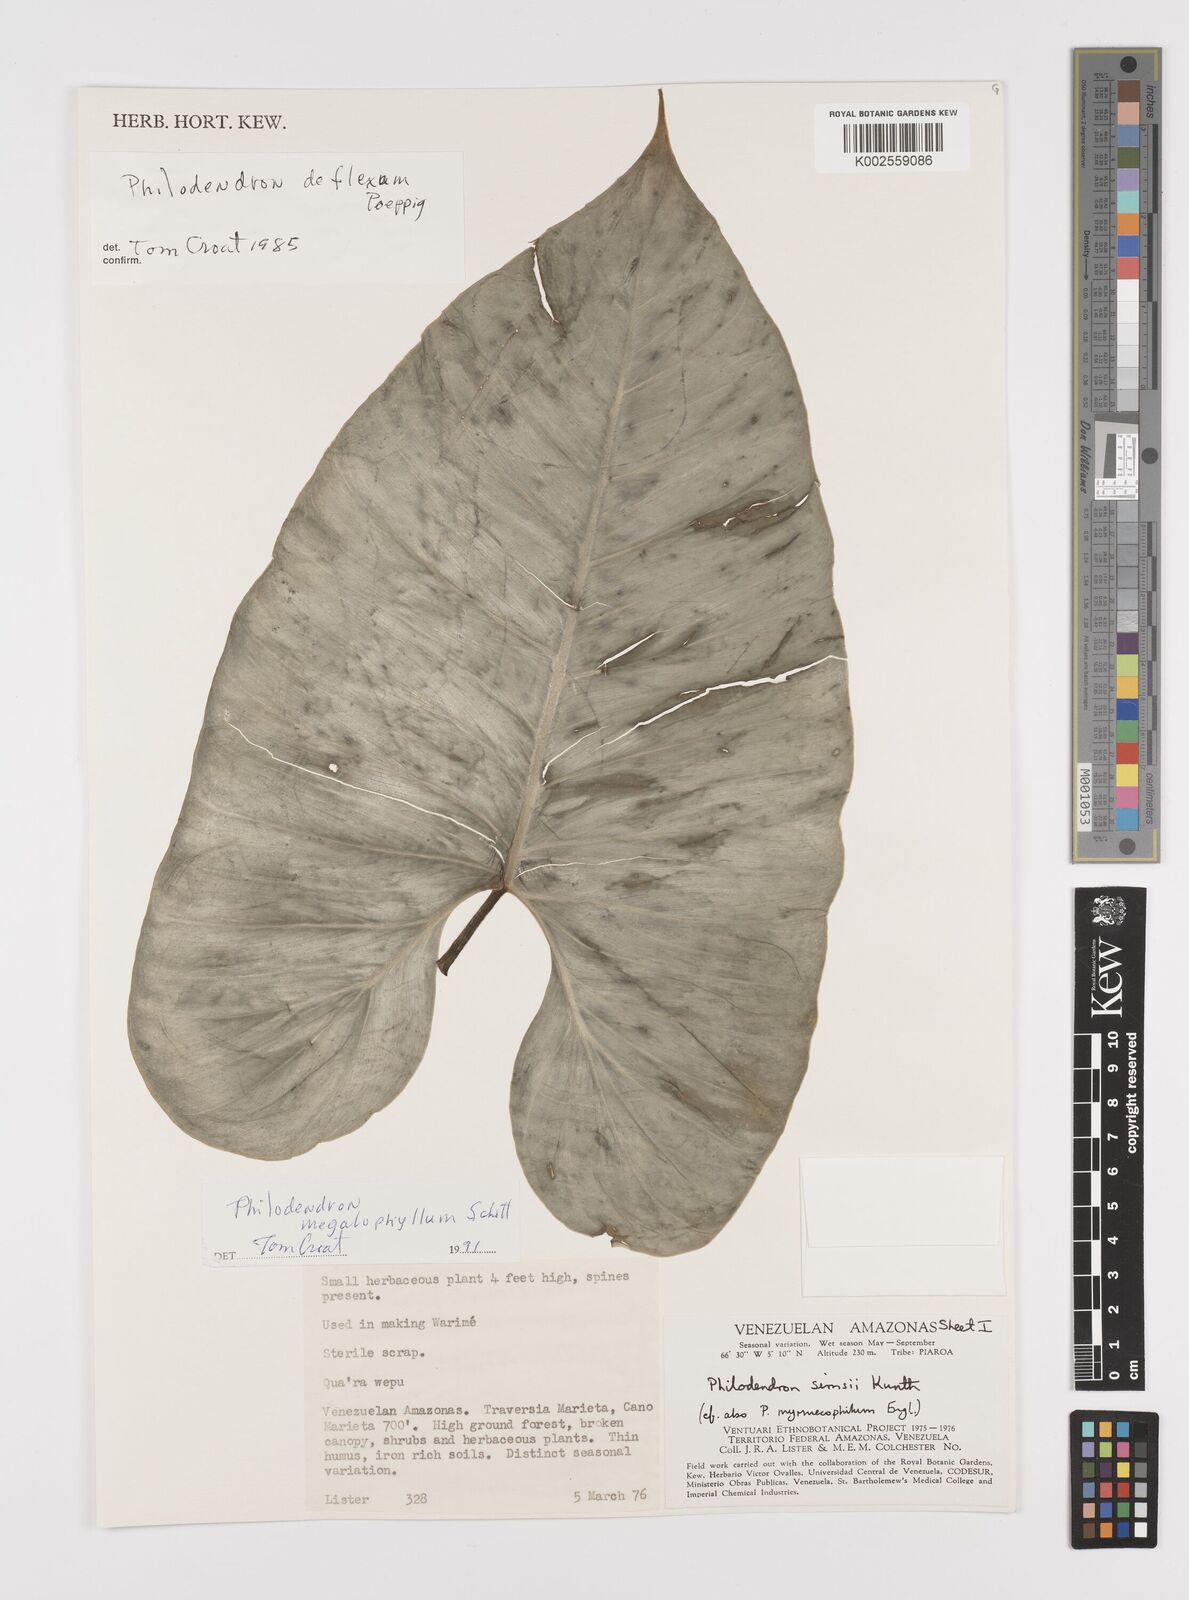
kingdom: Plantae
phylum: Tracheophyta
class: Liliopsida
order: Alismatales
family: Araceae
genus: Philodendron
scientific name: Philodendron megalophyllum
